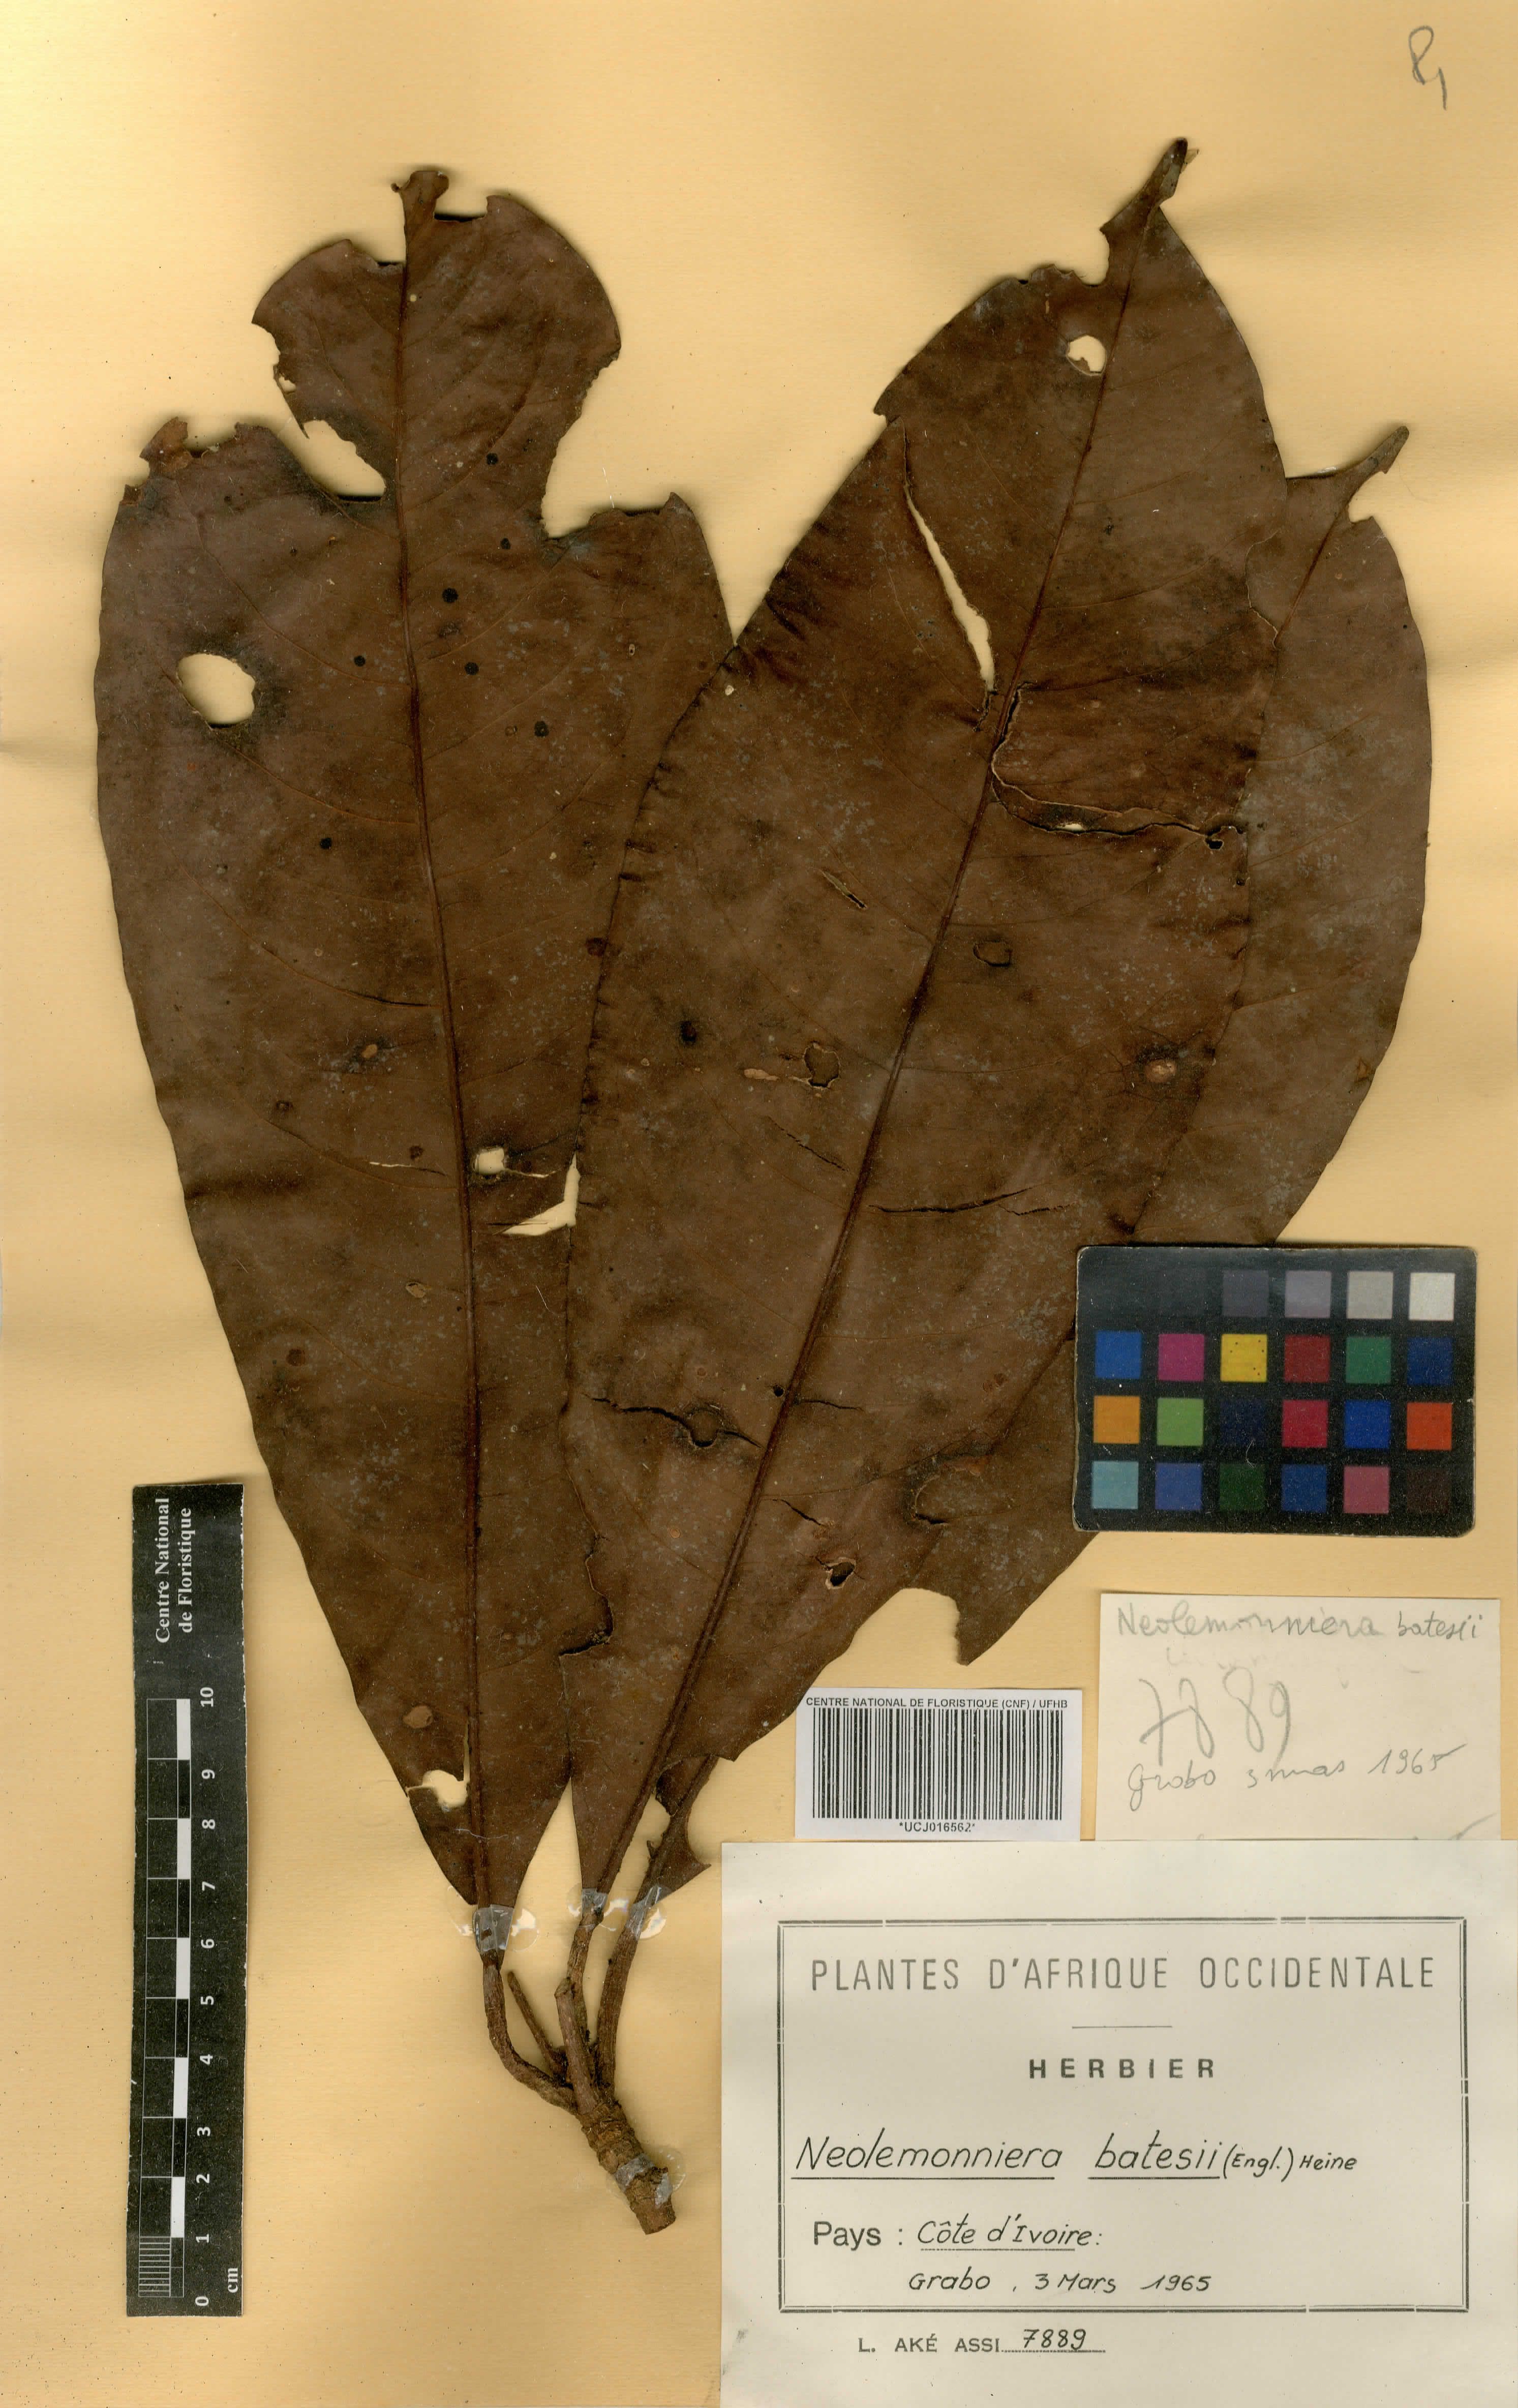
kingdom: Plantae
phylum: Tracheophyta
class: Magnoliopsida
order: Ericales
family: Sapotaceae
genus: Neolemonniera
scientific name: Neolemonniera batesii
